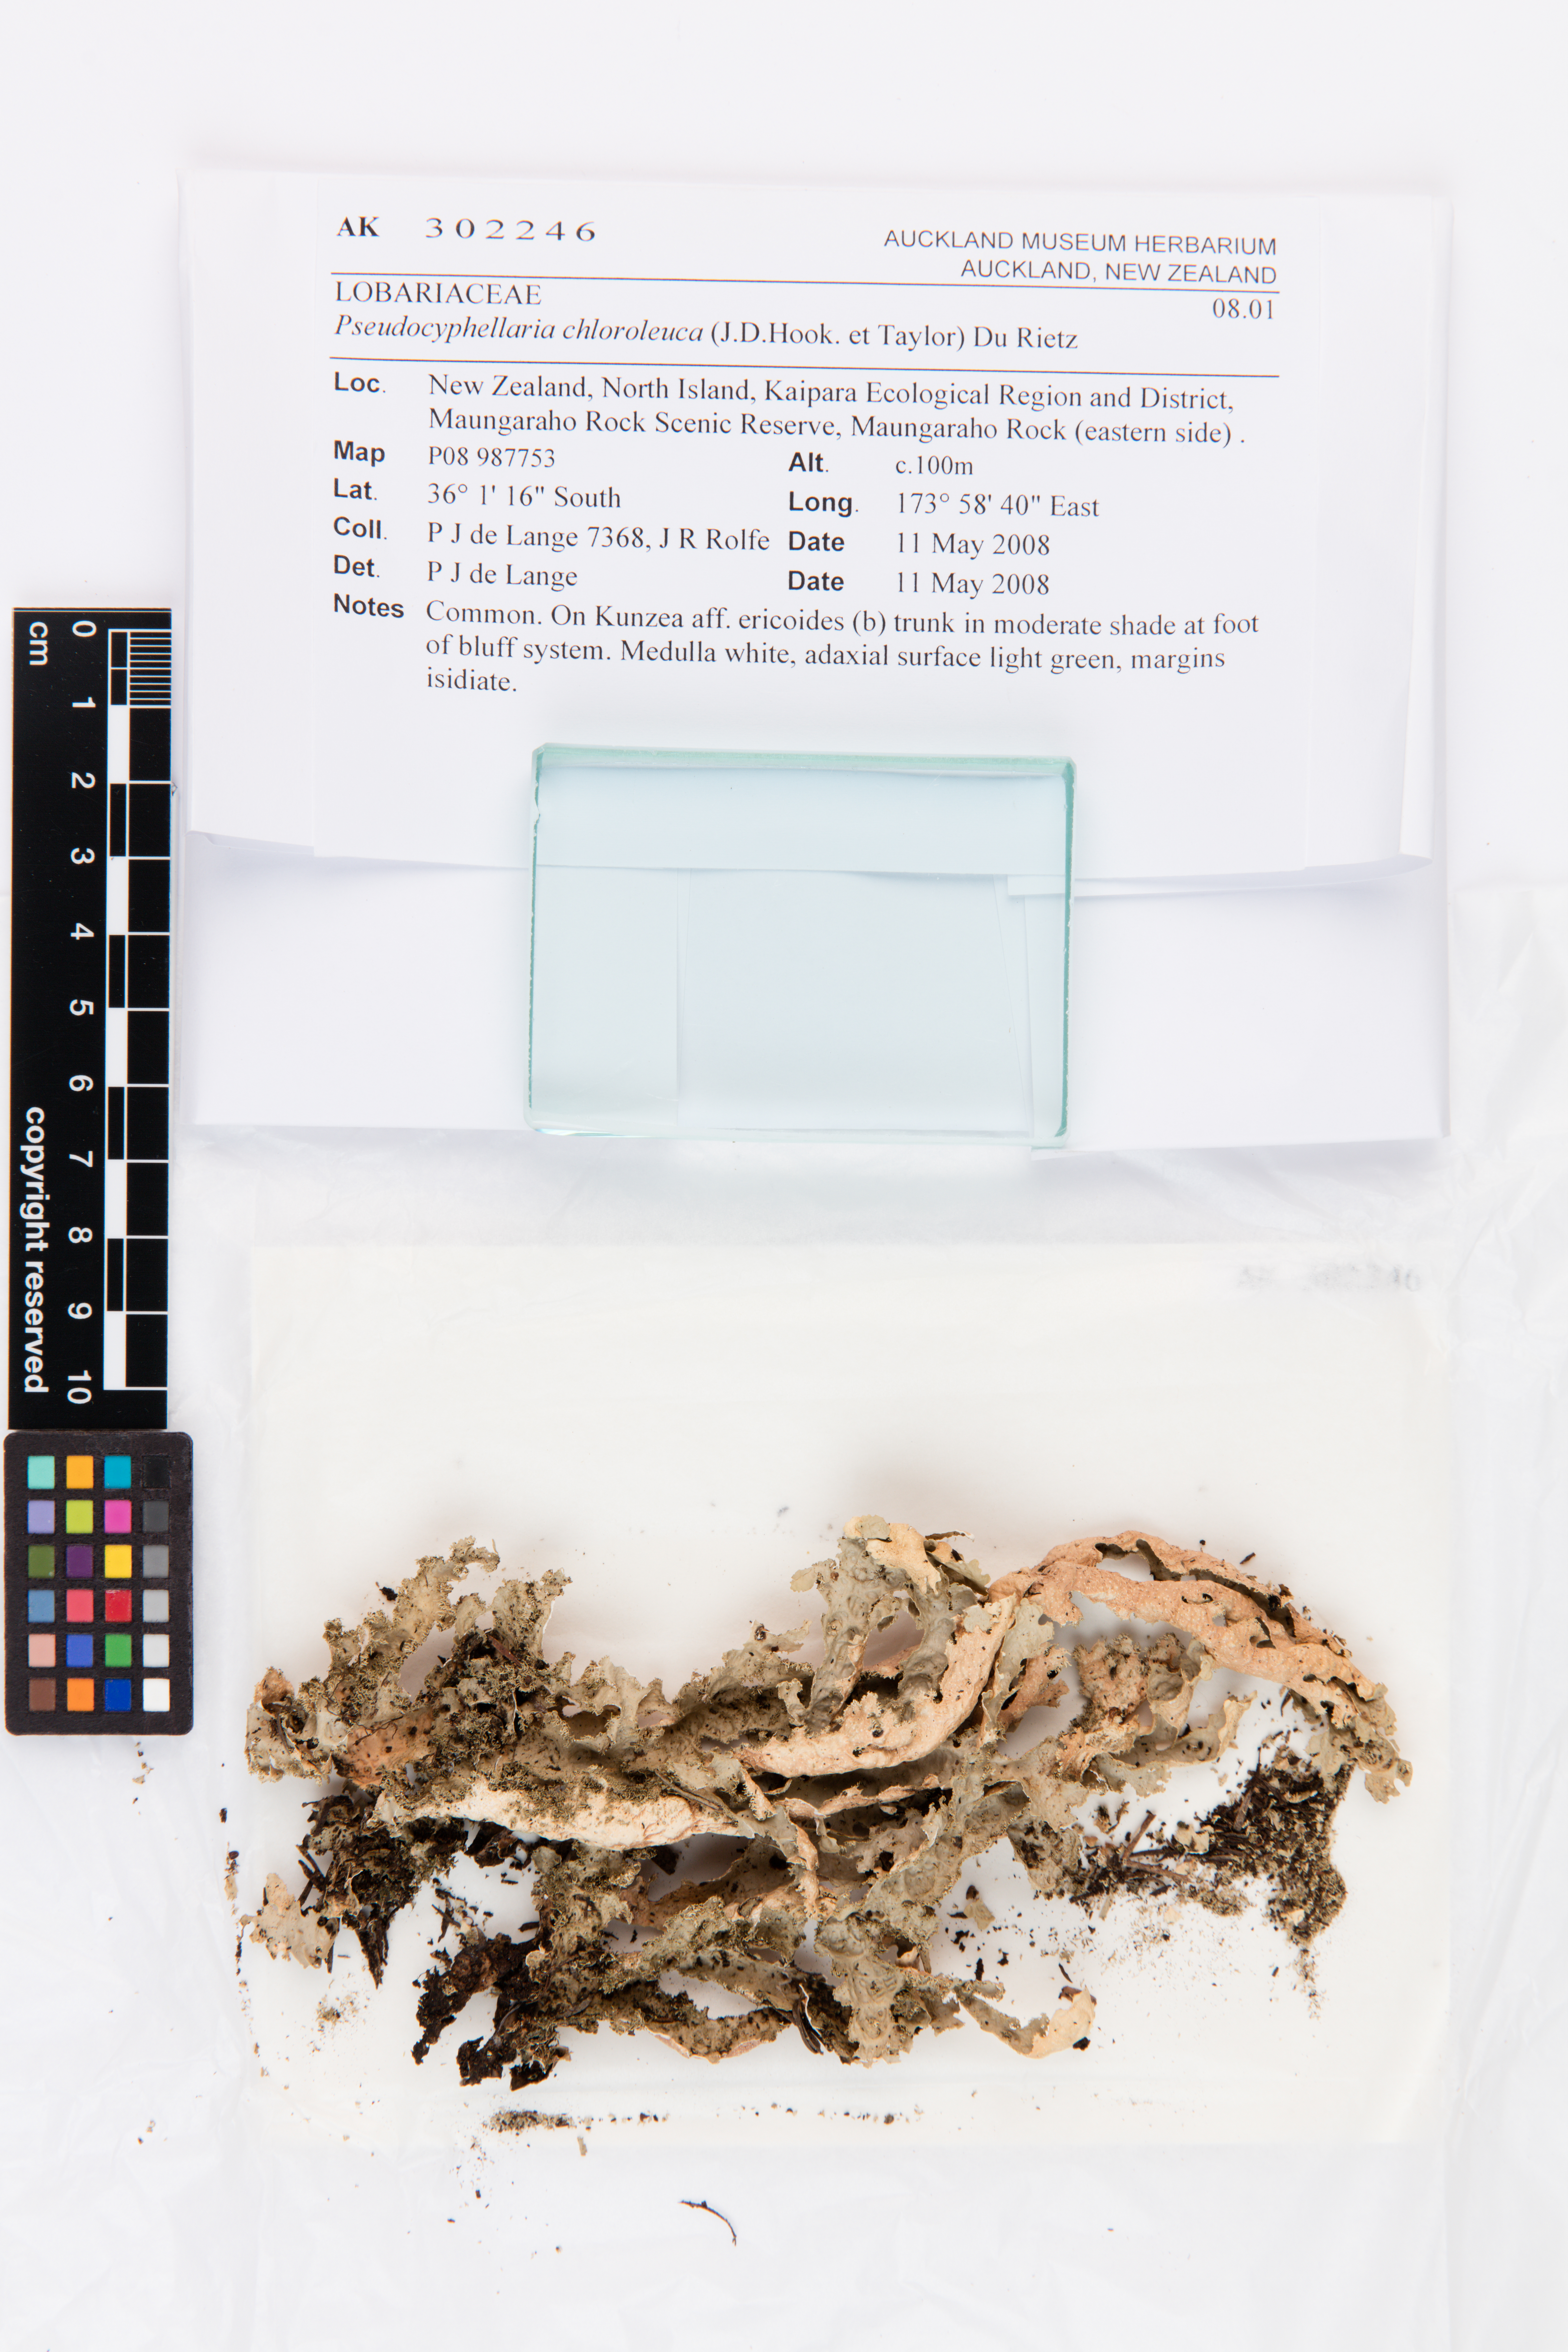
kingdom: Fungi
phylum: Ascomycota
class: Lecanoromycetes
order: Peltigerales
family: Lobariaceae
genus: Pseudocyphellaria
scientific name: Pseudocyphellaria chloroleuca
